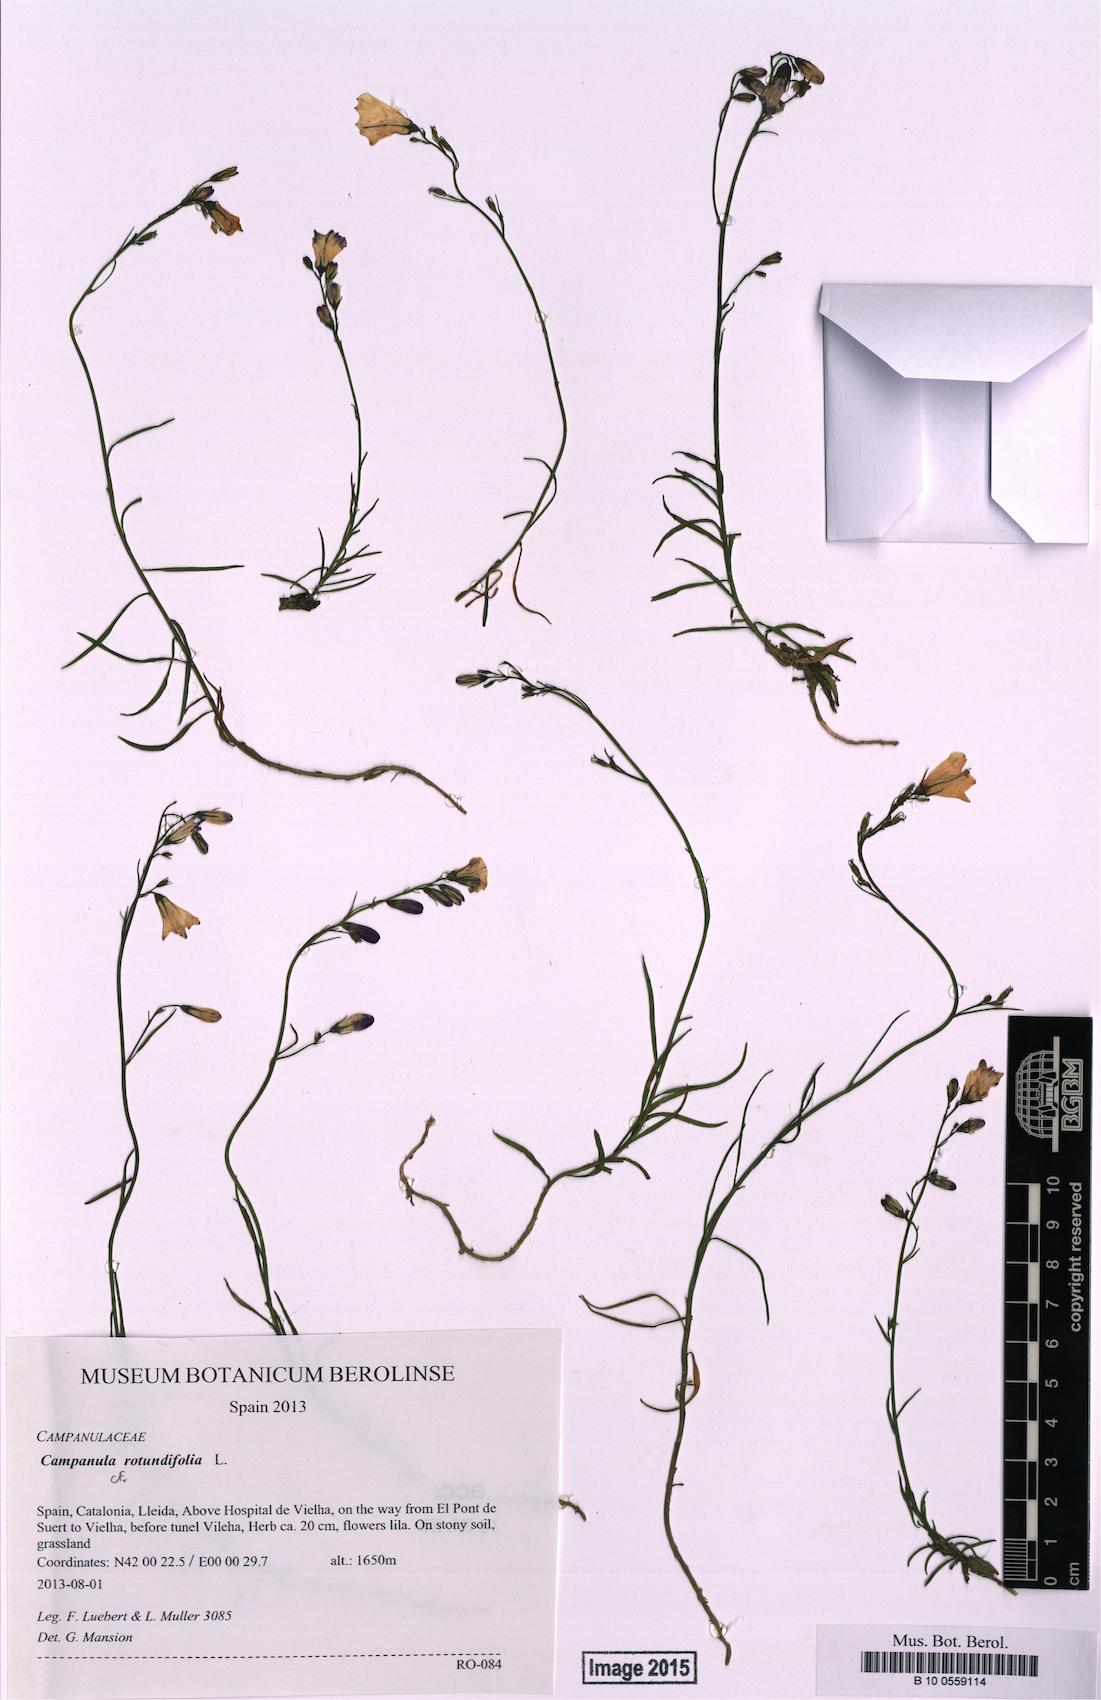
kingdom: Plantae
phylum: Tracheophyta
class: Magnoliopsida
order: Asterales
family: Campanulaceae
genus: Campanula
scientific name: Campanula rotundifolia
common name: Harebell
